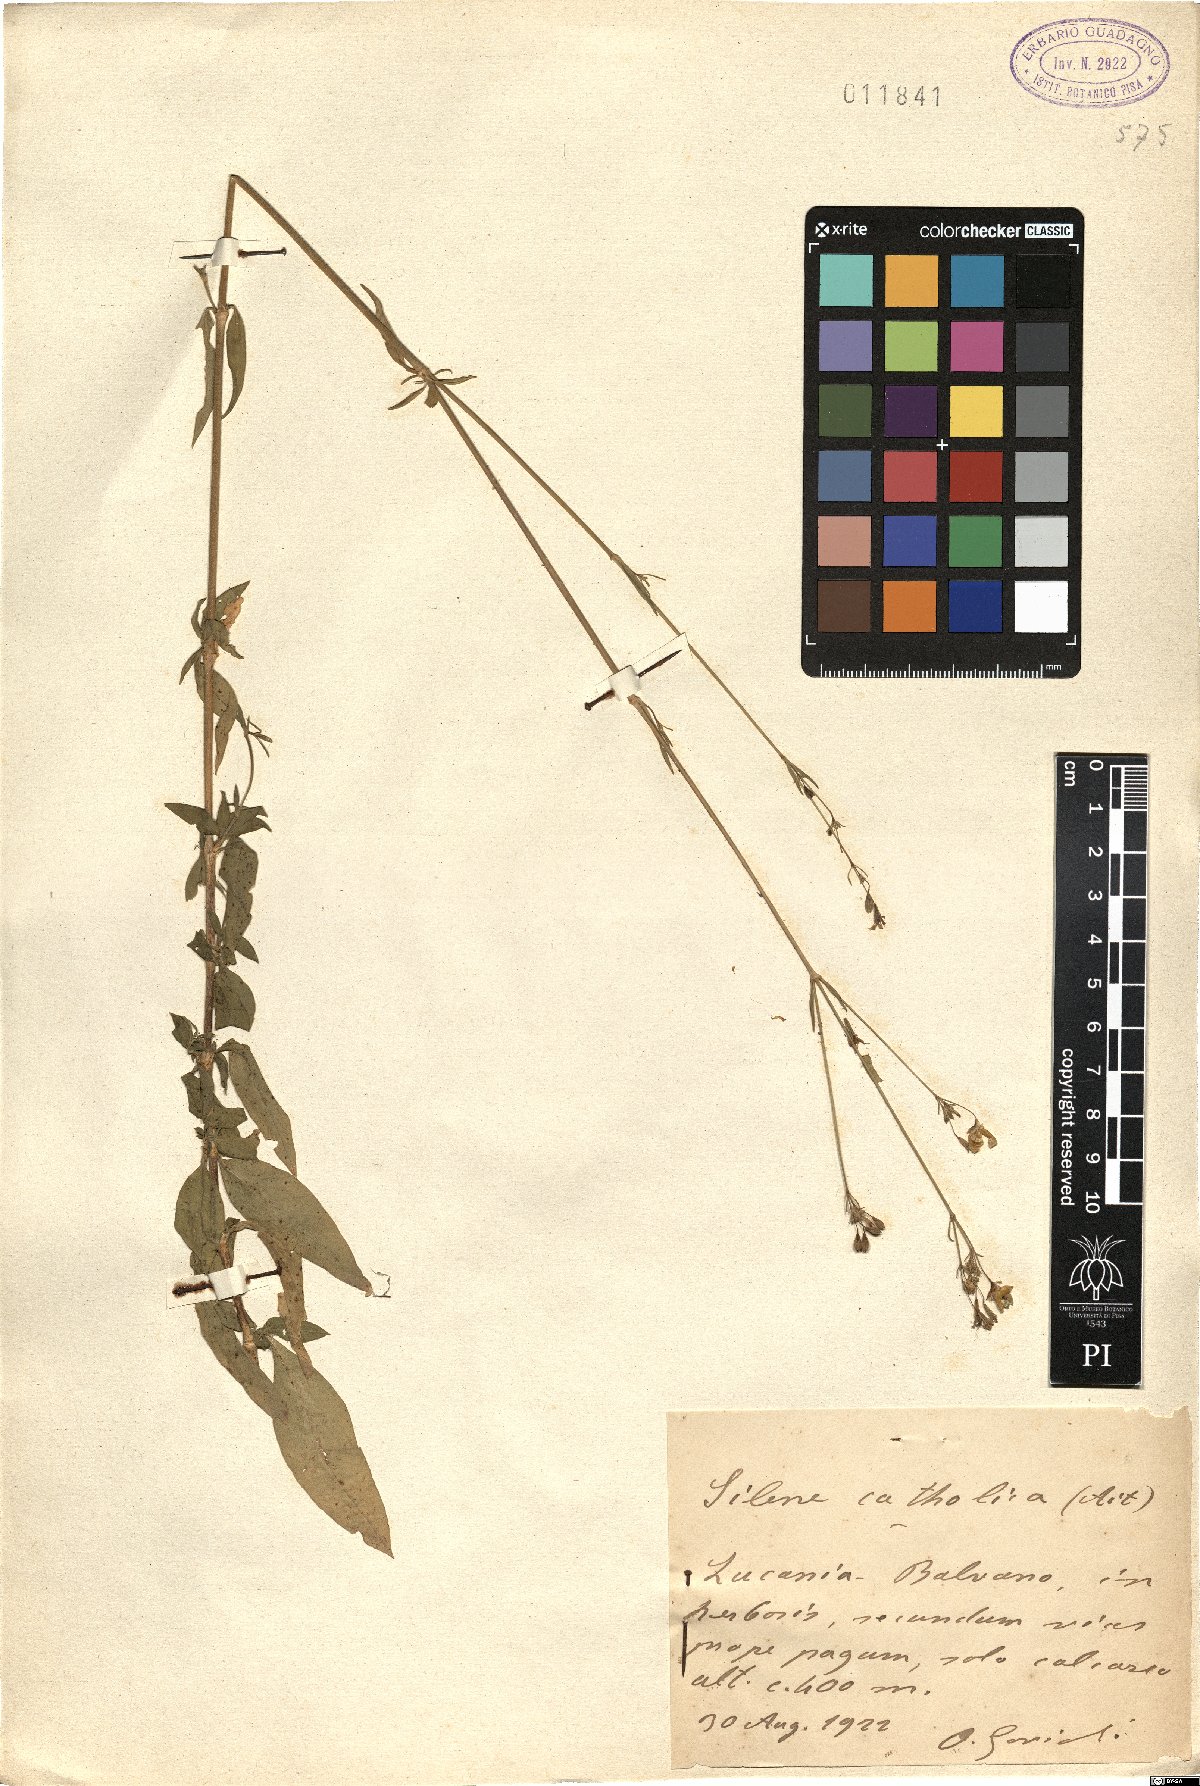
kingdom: Plantae
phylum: Tracheophyta
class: Magnoliopsida
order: Caryophyllales
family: Caryophyllaceae
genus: Silene
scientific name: Silene catholica
